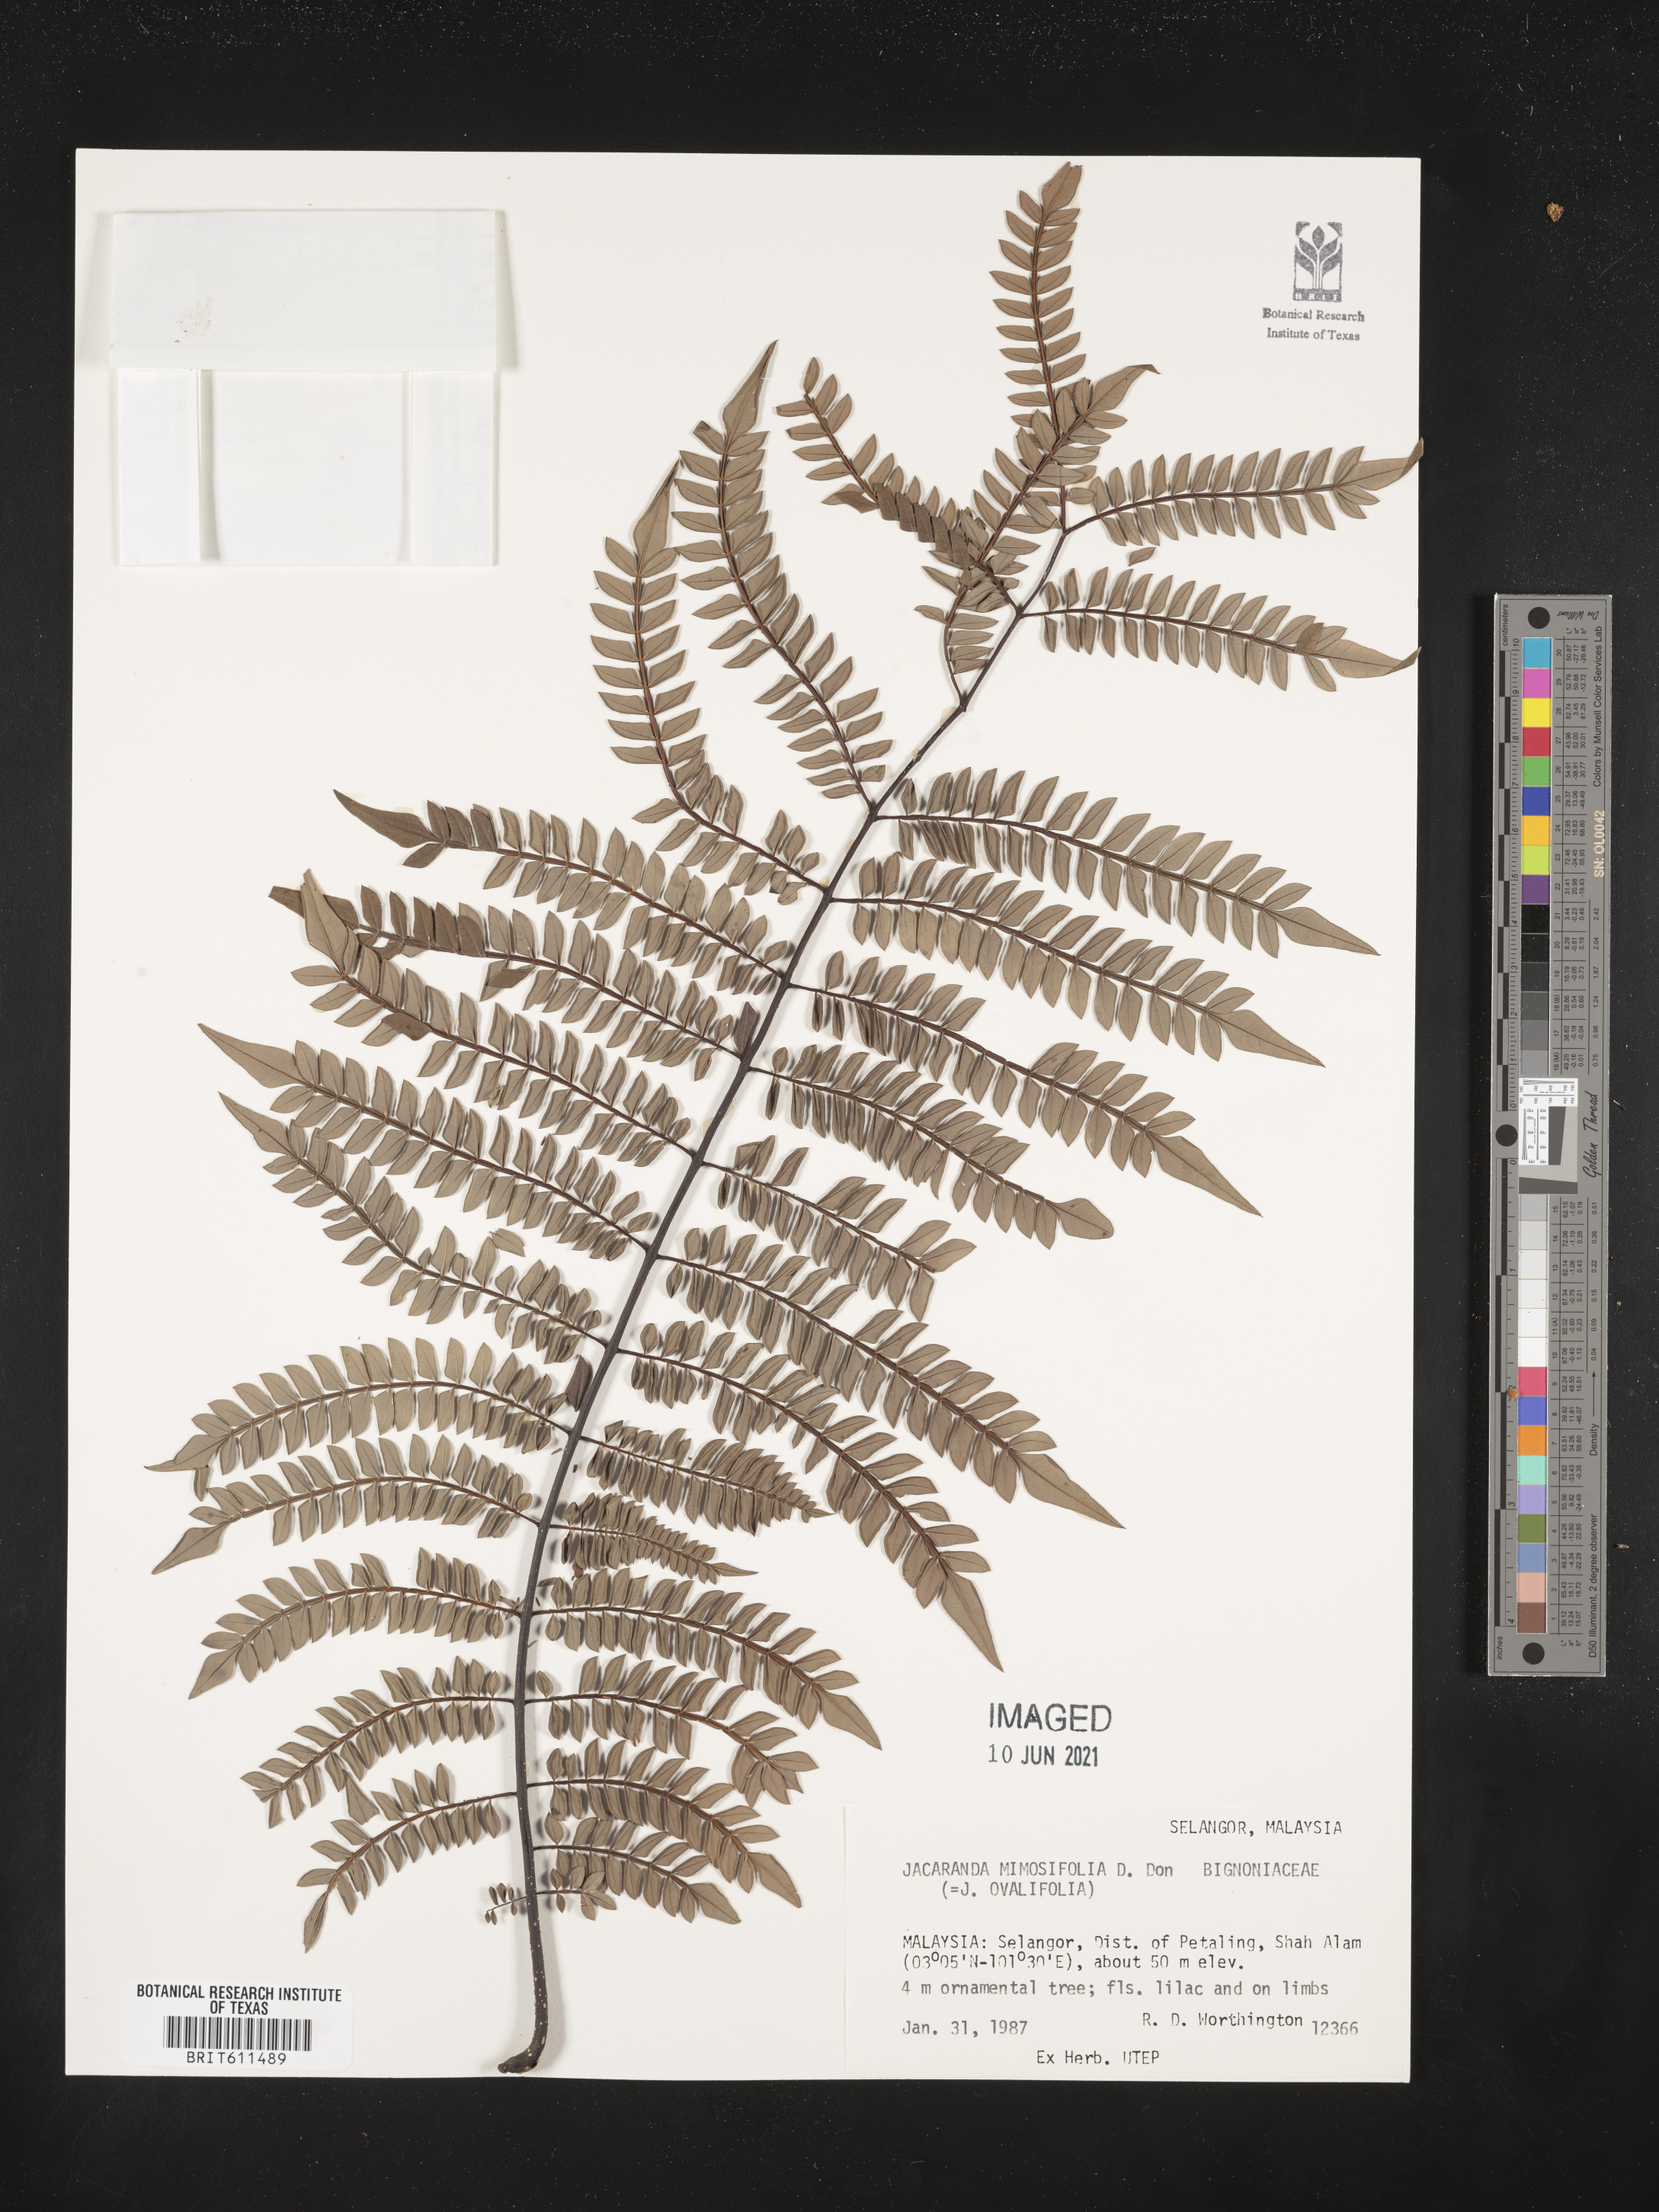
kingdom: Plantae
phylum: Tracheophyta
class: Magnoliopsida
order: Lamiales
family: Bignoniaceae
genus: Jacaranda
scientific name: Jacaranda mimosifolia
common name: Black poui
